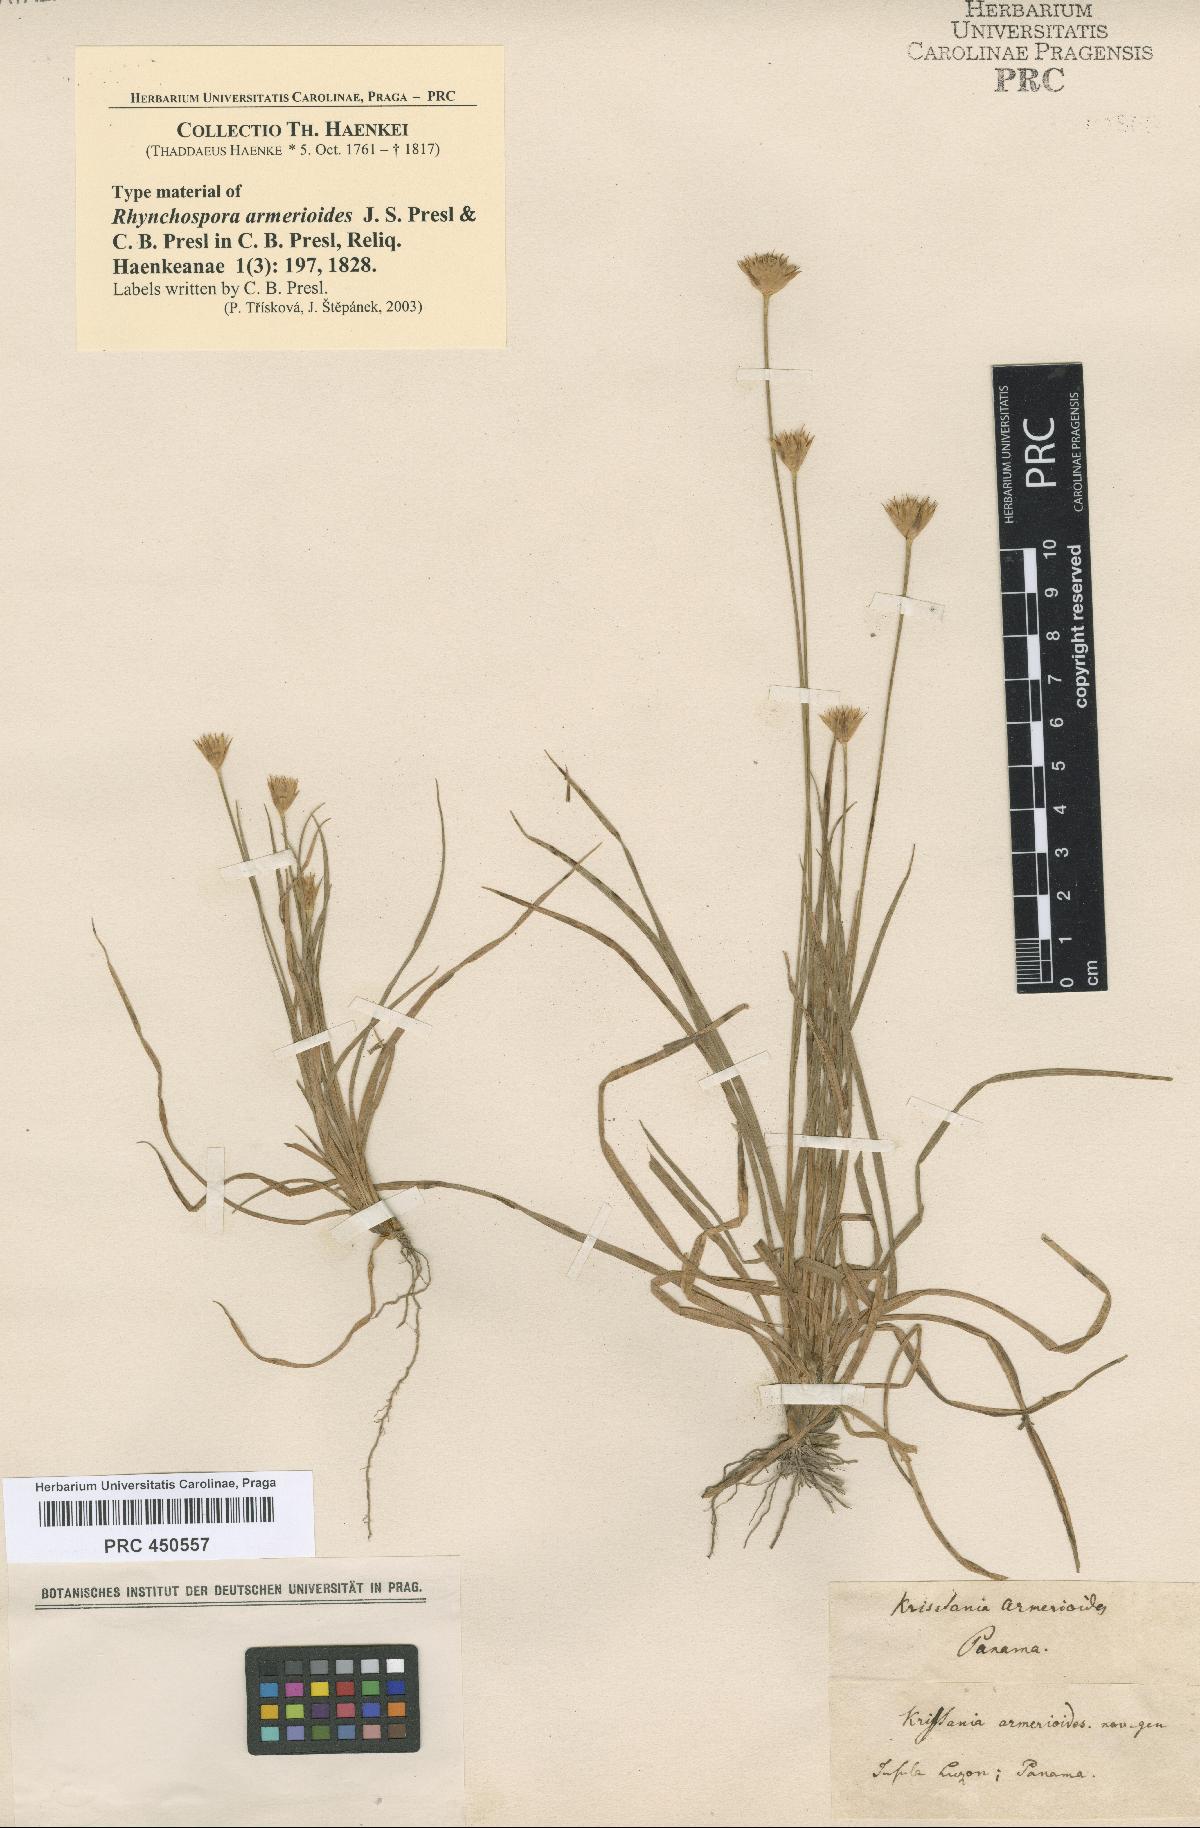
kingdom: Plantae
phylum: Tracheophyta
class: Liliopsida
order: Poales
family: Cyperaceae
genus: Rhynchospora
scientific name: Rhynchospora armerioides
